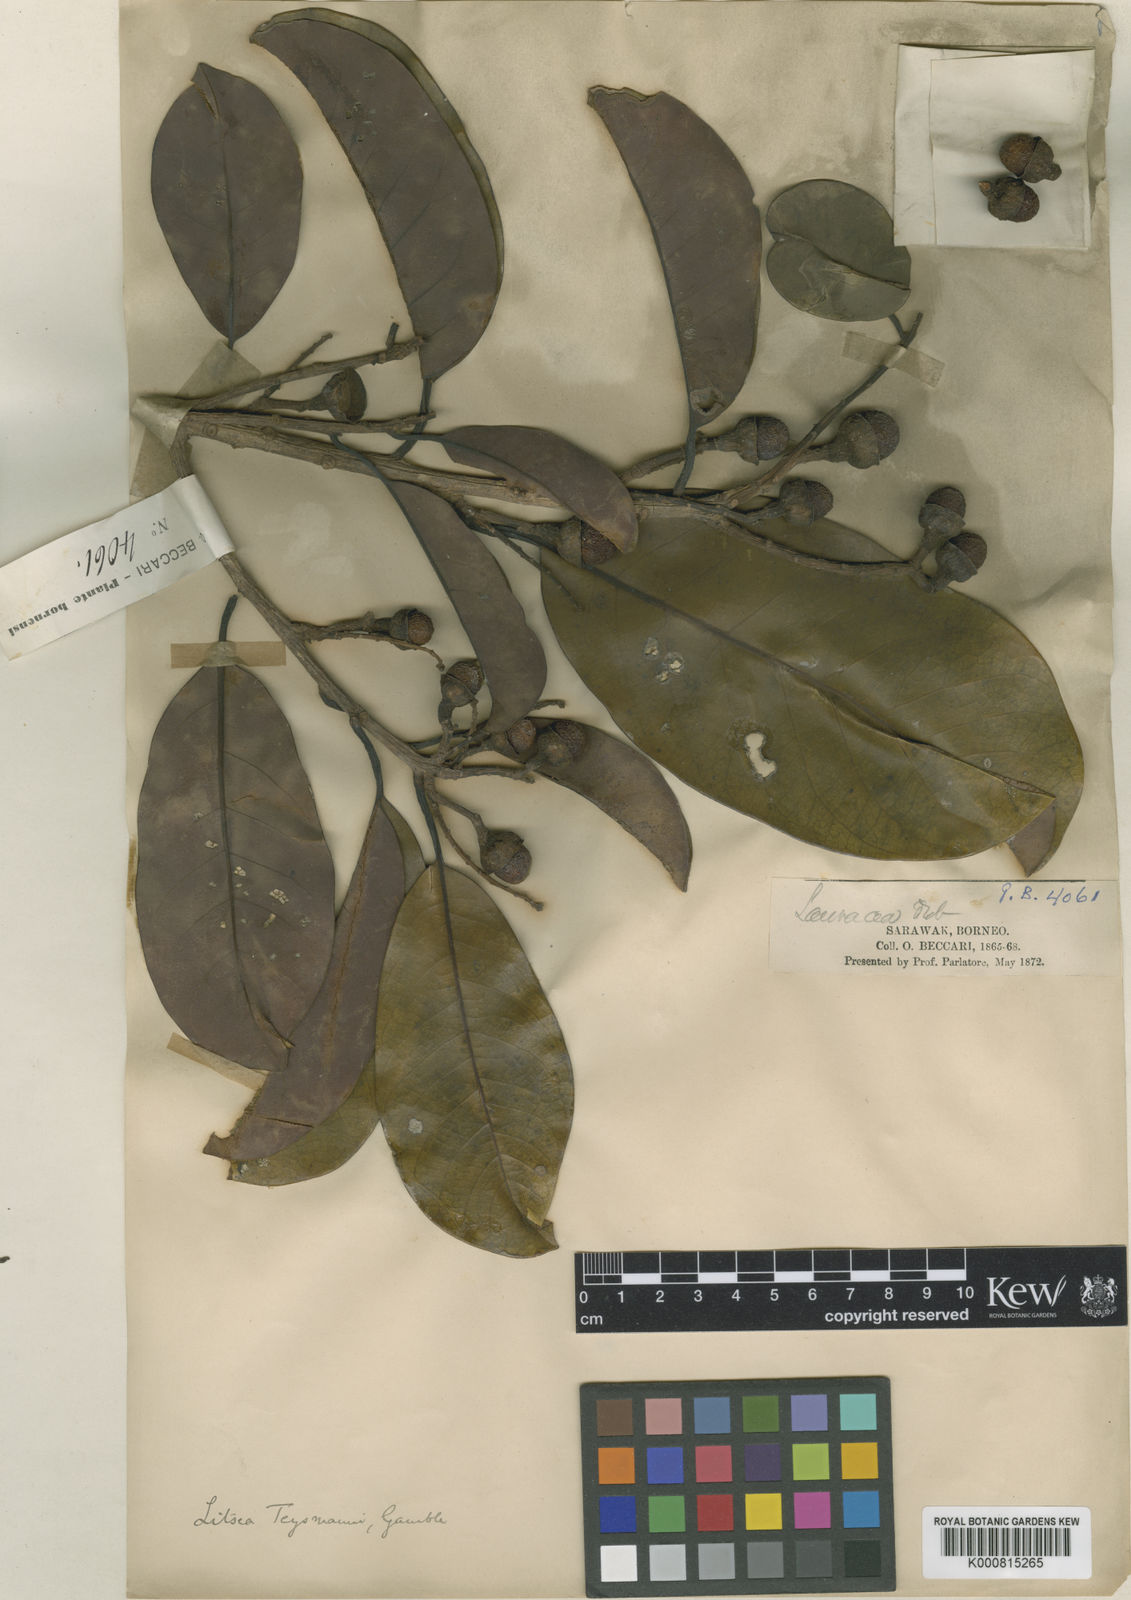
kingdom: Plantae
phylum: Tracheophyta
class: Magnoliopsida
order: Laurales
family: Lauraceae
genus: Litsea
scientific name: Litsea machilifolia
